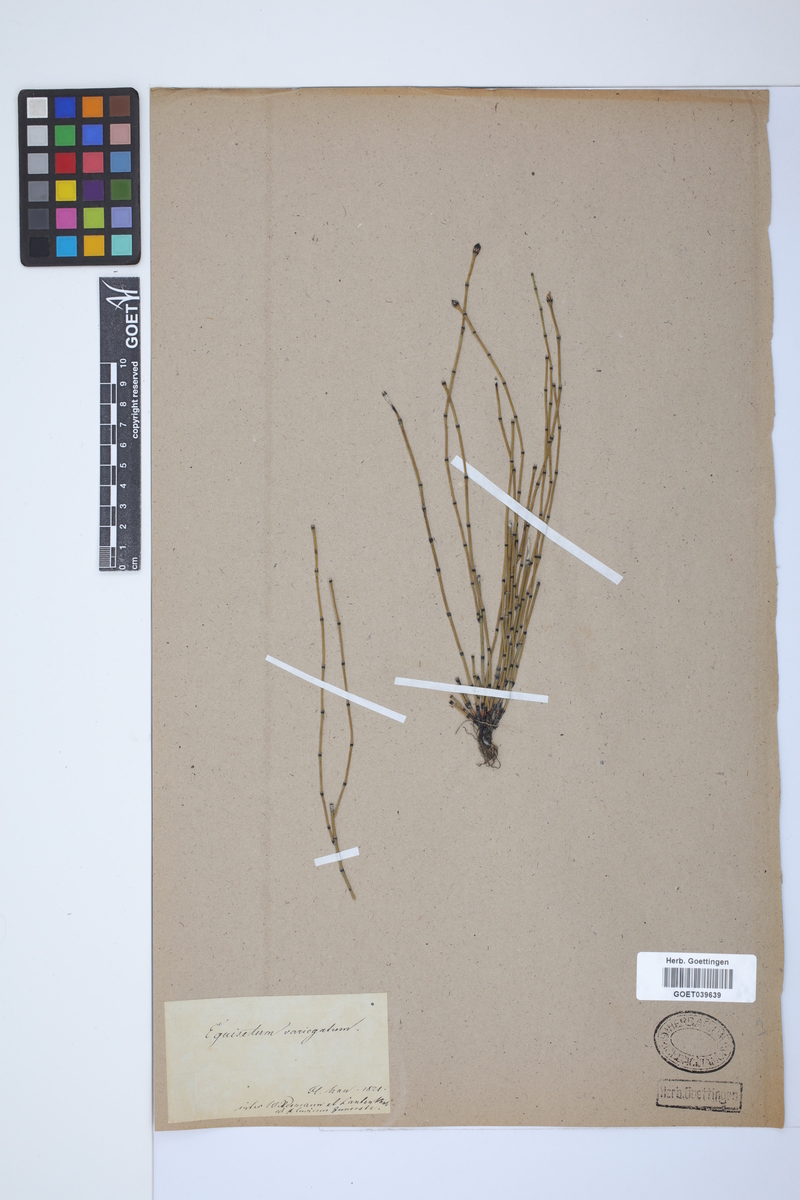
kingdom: Plantae
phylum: Tracheophyta
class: Polypodiopsida
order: Equisetales
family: Equisetaceae
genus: Equisetum
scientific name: Equisetum variegatum
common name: Variegated horsetail
